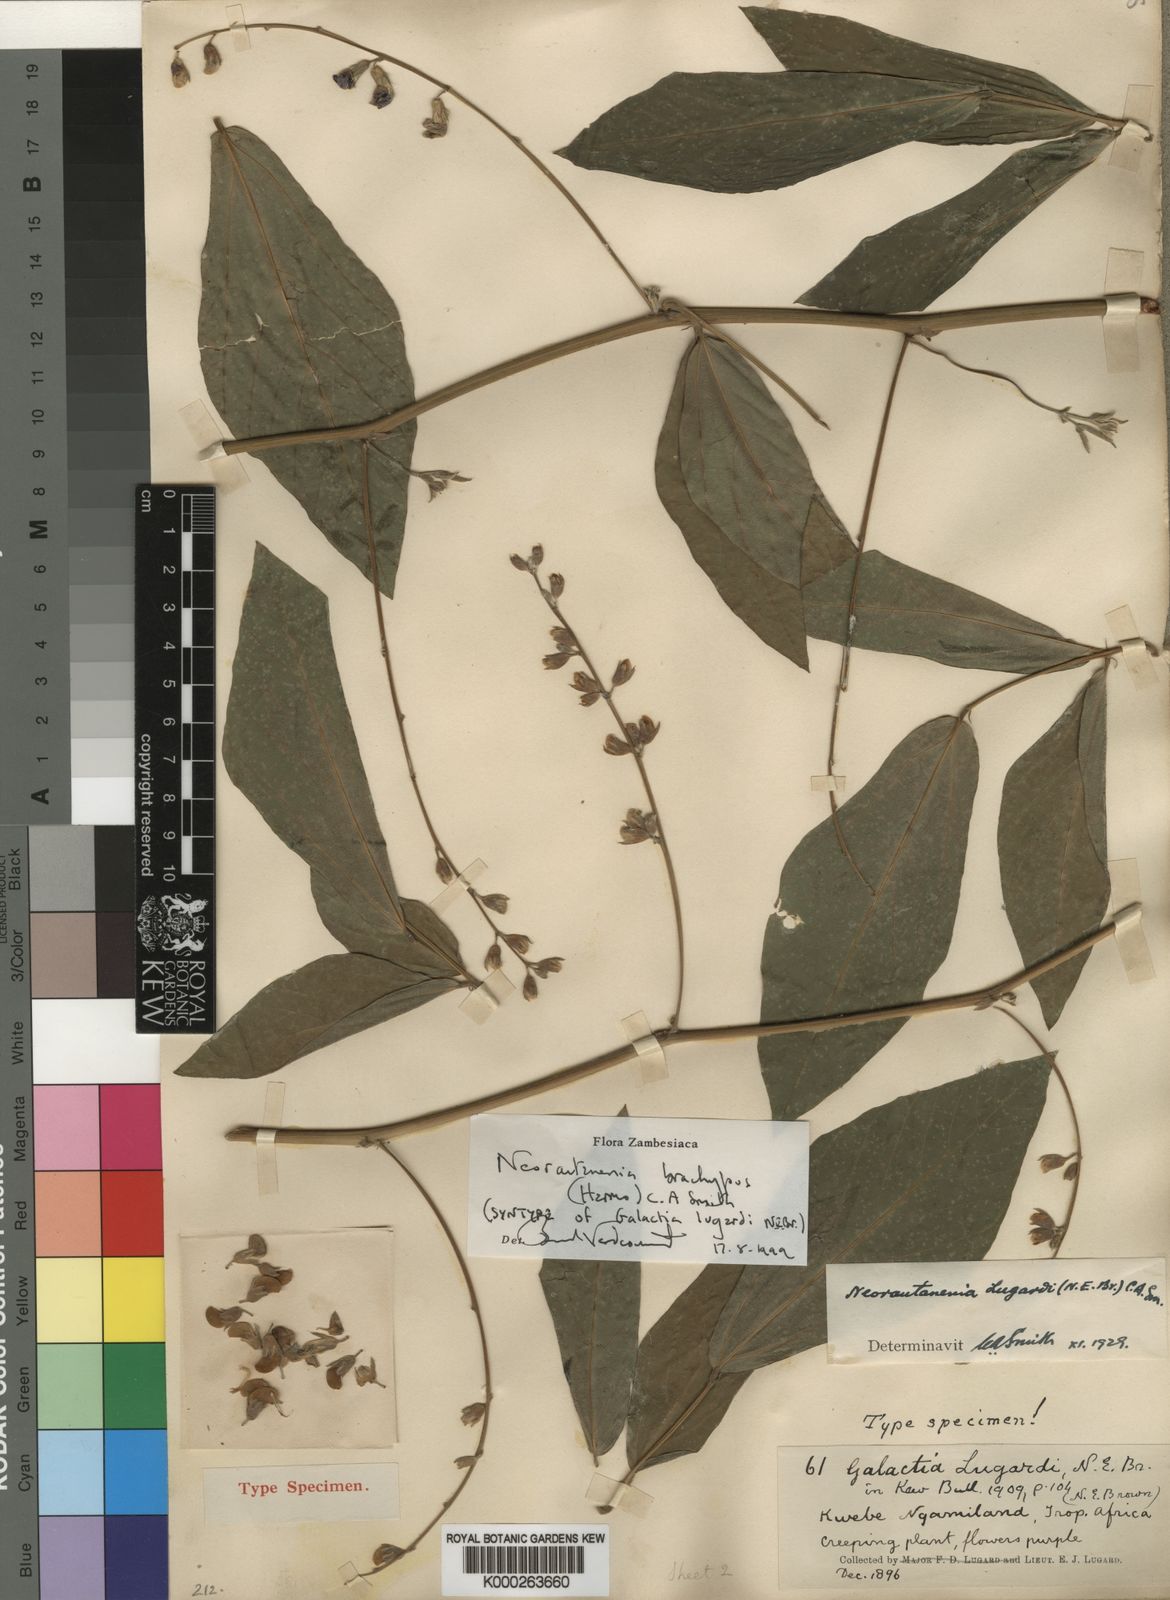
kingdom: Plantae
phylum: Tracheophyta
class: Magnoliopsida
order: Fabales
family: Fabaceae
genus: Neorautanenia
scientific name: Neorautanenia
